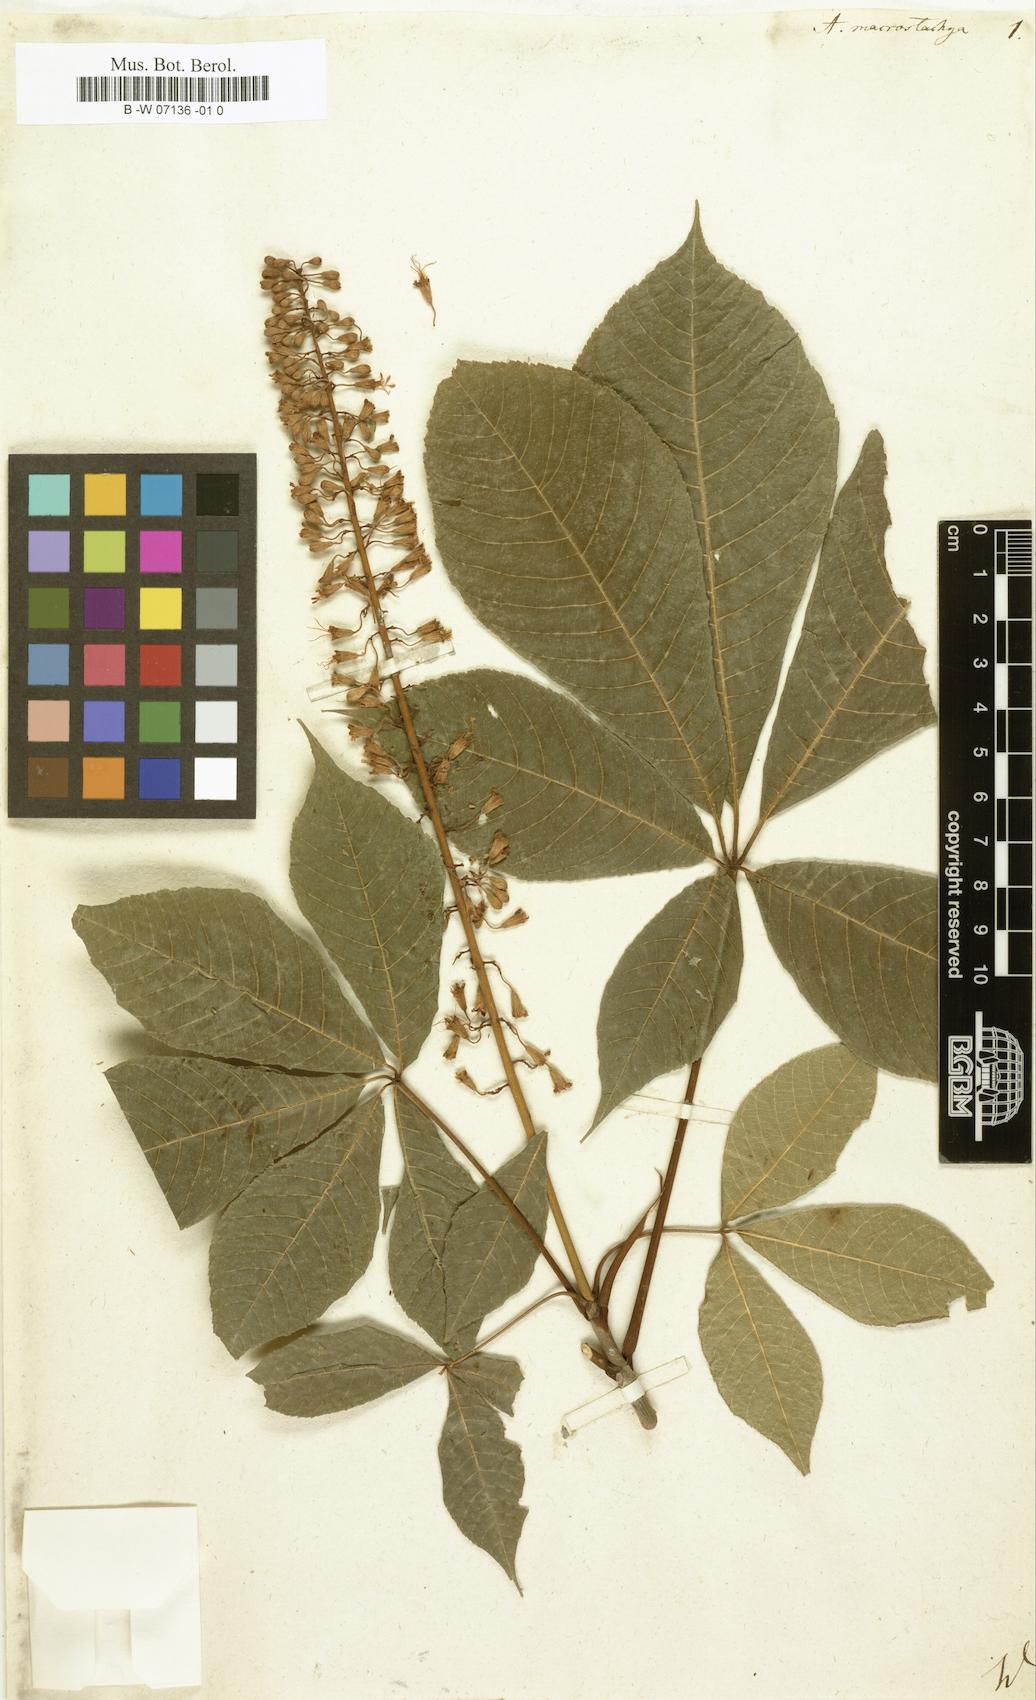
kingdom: Plantae
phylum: Tracheophyta
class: Magnoliopsida
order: Sapindales
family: Sapindaceae
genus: Aesculus
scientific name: Aesculus parviflora
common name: Bottlebrush buckeye
